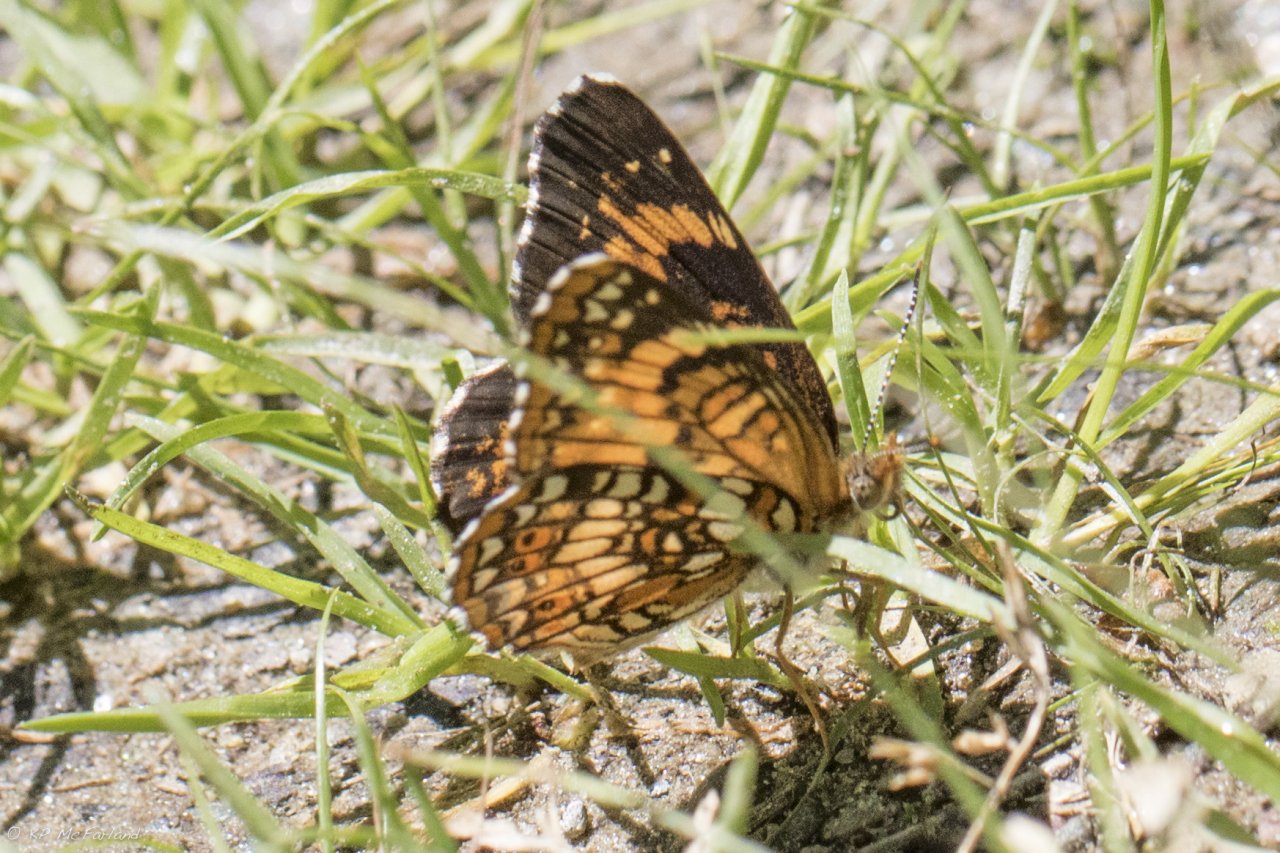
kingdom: Animalia
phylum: Arthropoda
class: Insecta
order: Lepidoptera
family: Nymphalidae
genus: Chlosyne
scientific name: Chlosyne harrisii
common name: Harris's Checkerspot
